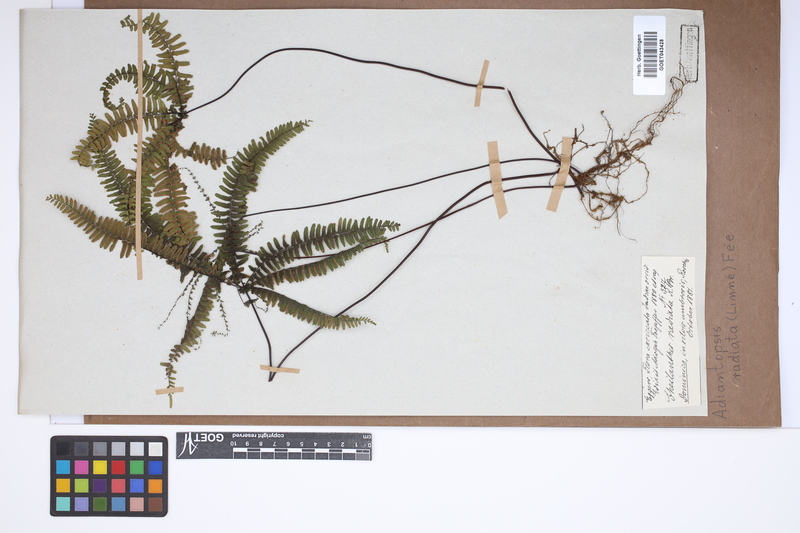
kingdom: Plantae
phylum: Tracheophyta
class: Polypodiopsida
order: Polypodiales
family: Pteridaceae
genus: Adiantopsis
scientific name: Adiantopsis radiata
